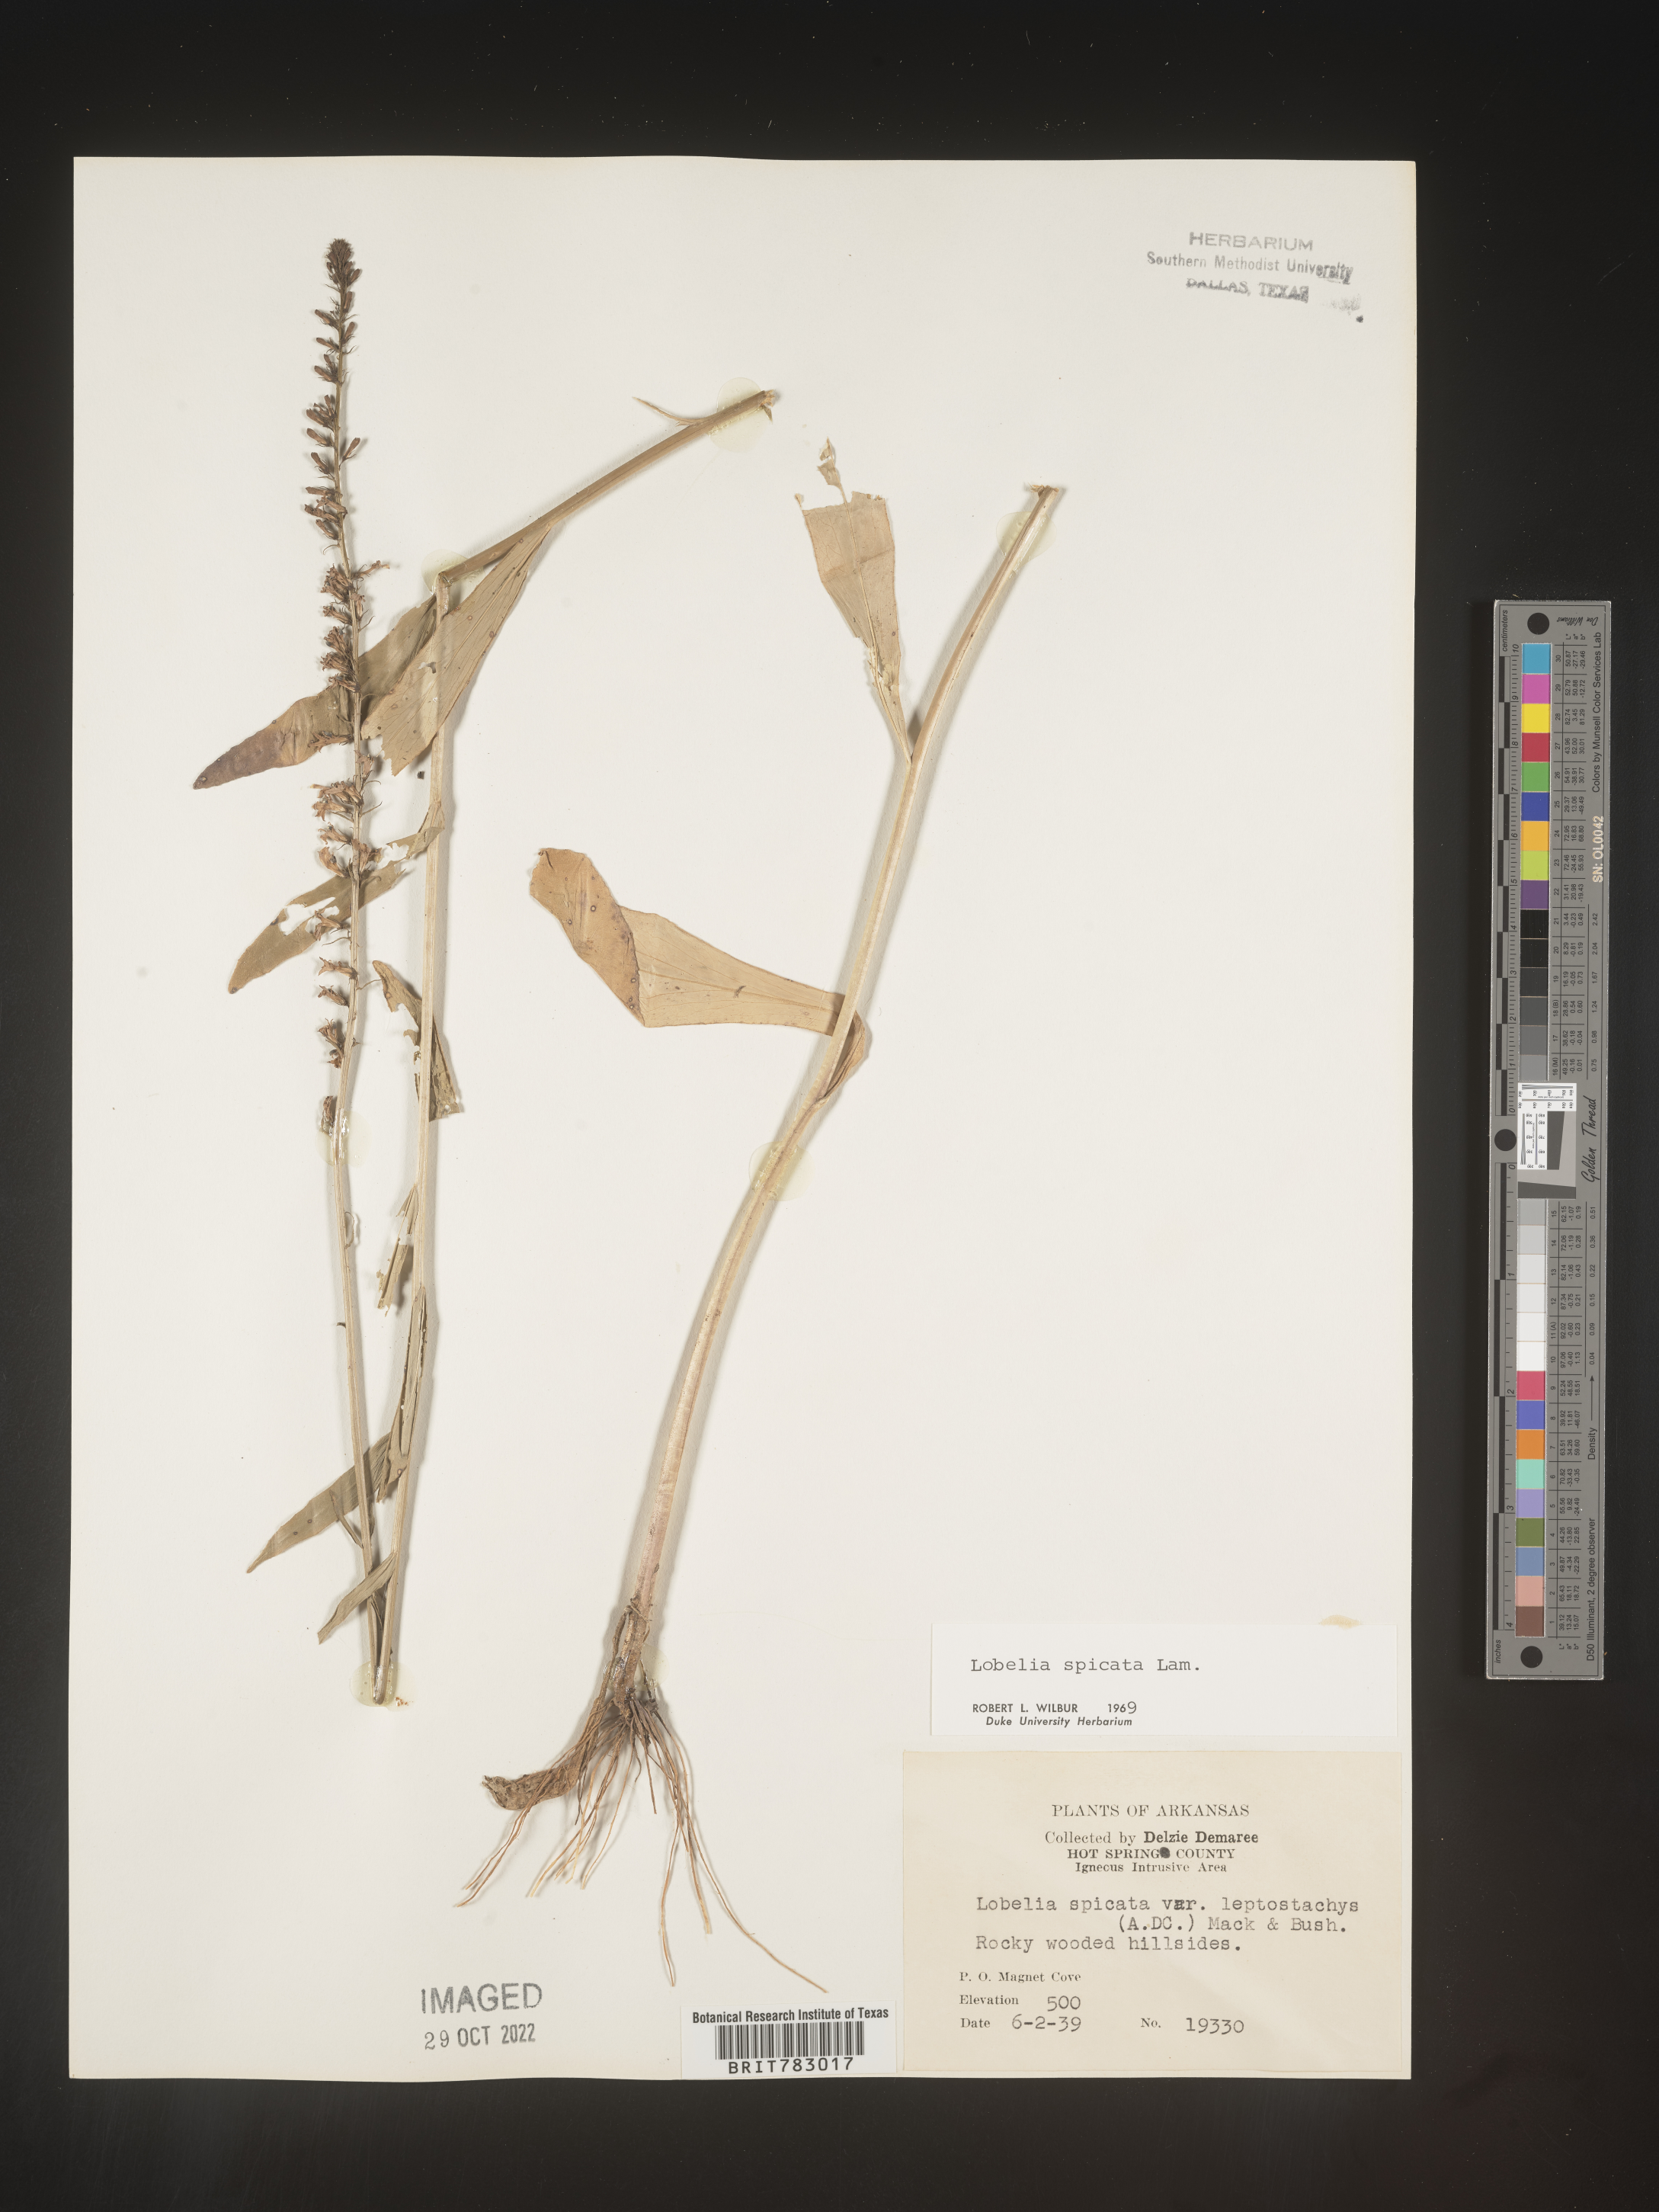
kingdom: Plantae
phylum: Tracheophyta
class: Magnoliopsida
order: Asterales
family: Campanulaceae
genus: Lobelia
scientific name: Lobelia spicata
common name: Pale-spike lobelia
